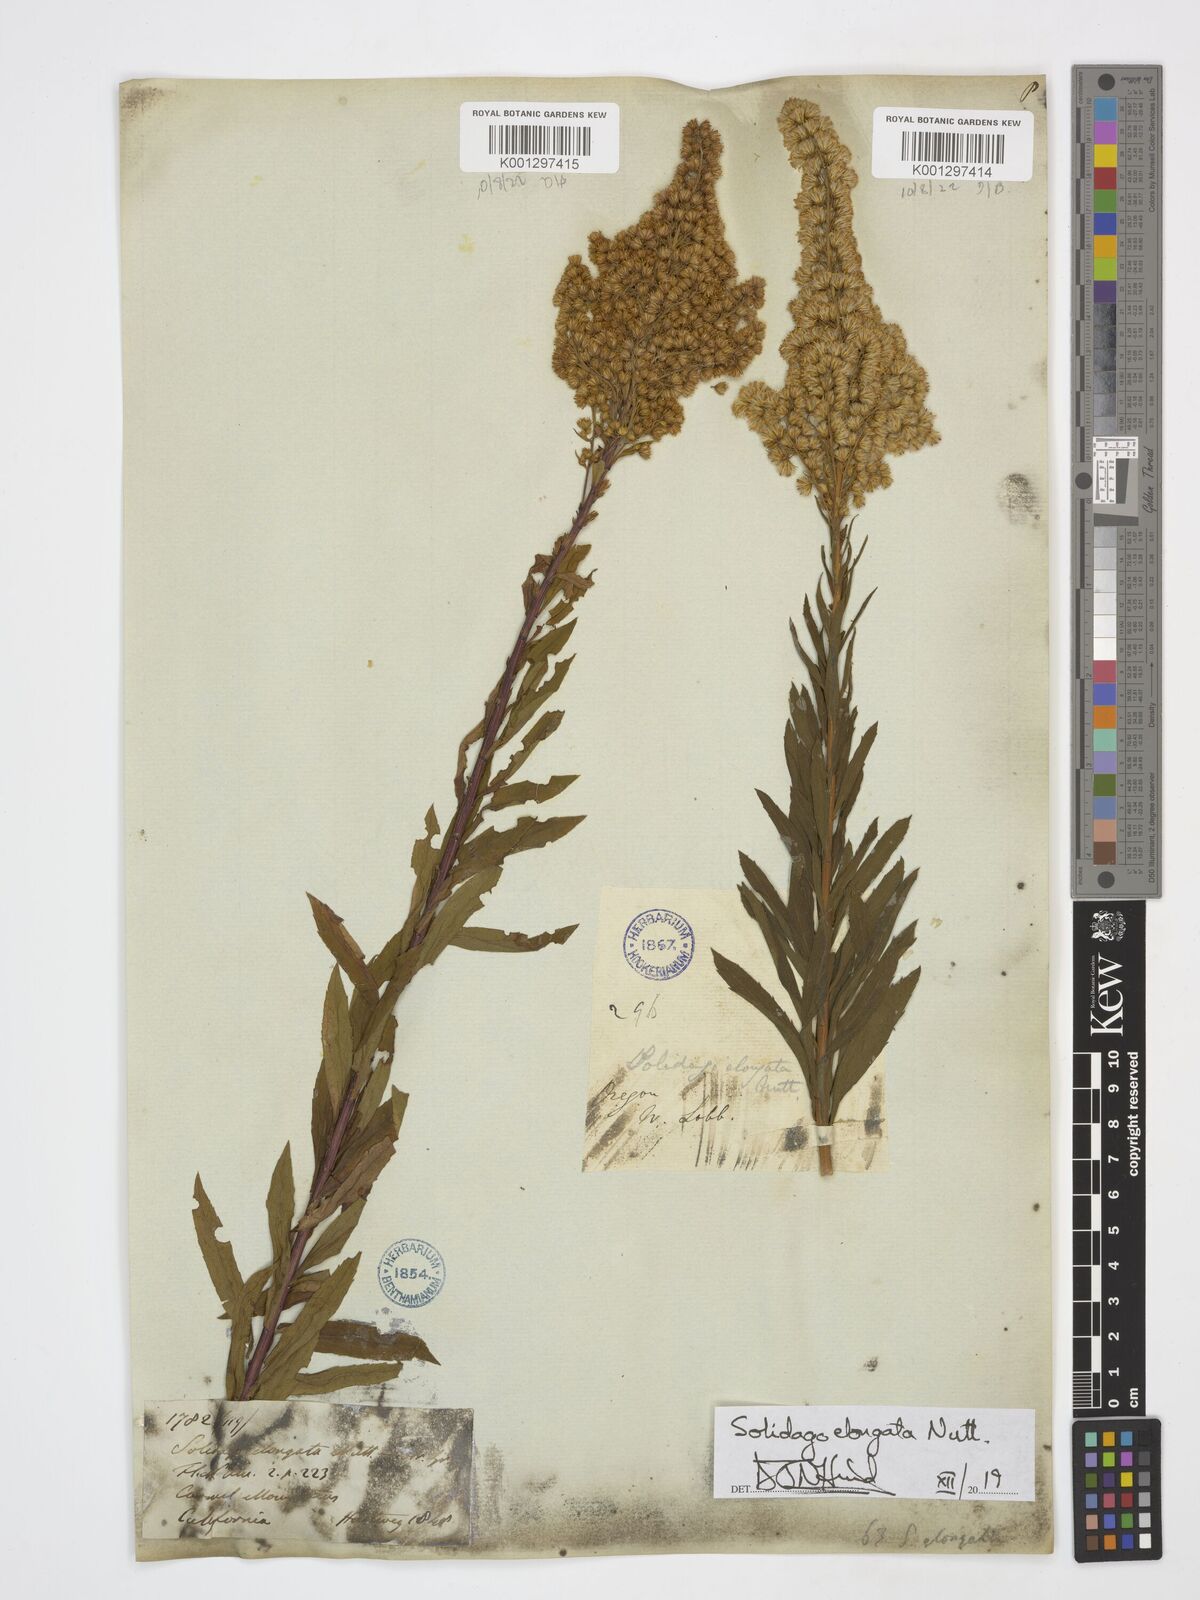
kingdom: Plantae
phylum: Tracheophyta
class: Magnoliopsida
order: Asterales
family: Asteraceae
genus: Solidago
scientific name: Solidago elongata
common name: Cascade canada goldenrod
